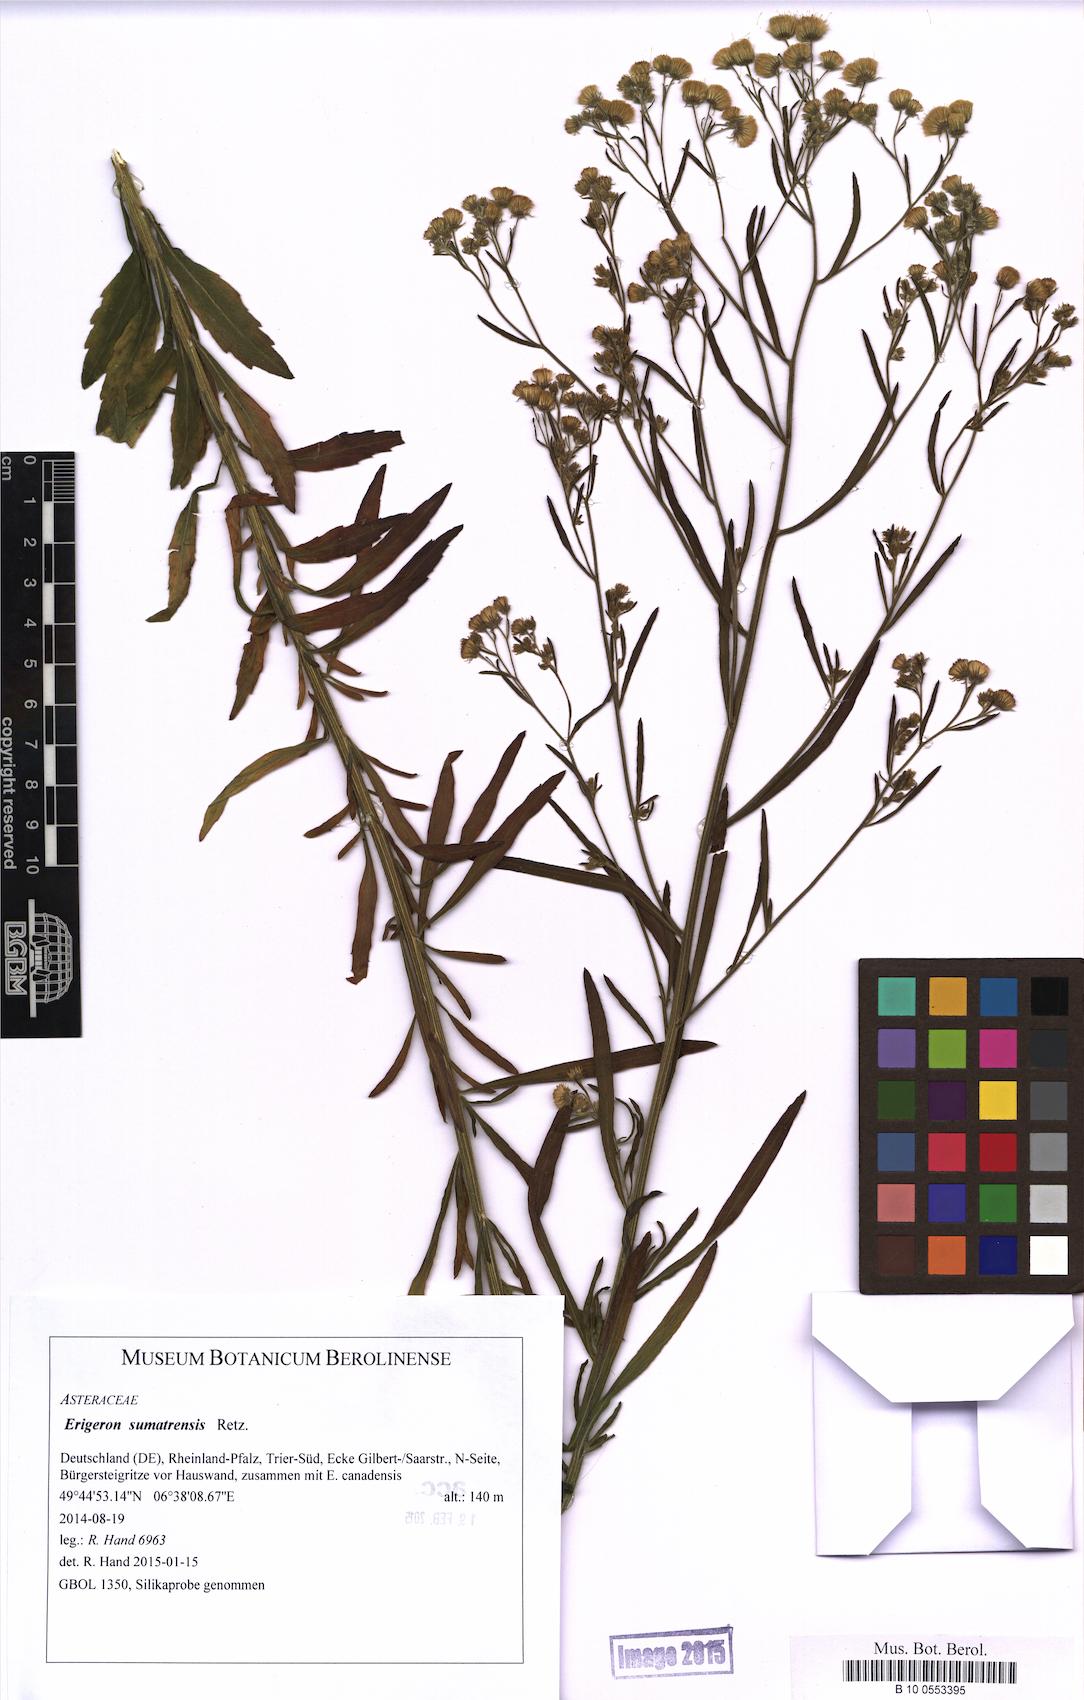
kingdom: Plantae
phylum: Tracheophyta
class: Magnoliopsida
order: Asterales
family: Asteraceae
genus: Erigeron
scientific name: Erigeron sumatrensis
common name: Daisy
